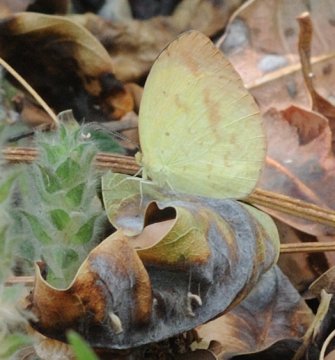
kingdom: Animalia
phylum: Arthropoda
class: Insecta
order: Lepidoptera
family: Pieridae
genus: Eurema
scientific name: Eurema desjardinsii
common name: Angled Grass Yellow
